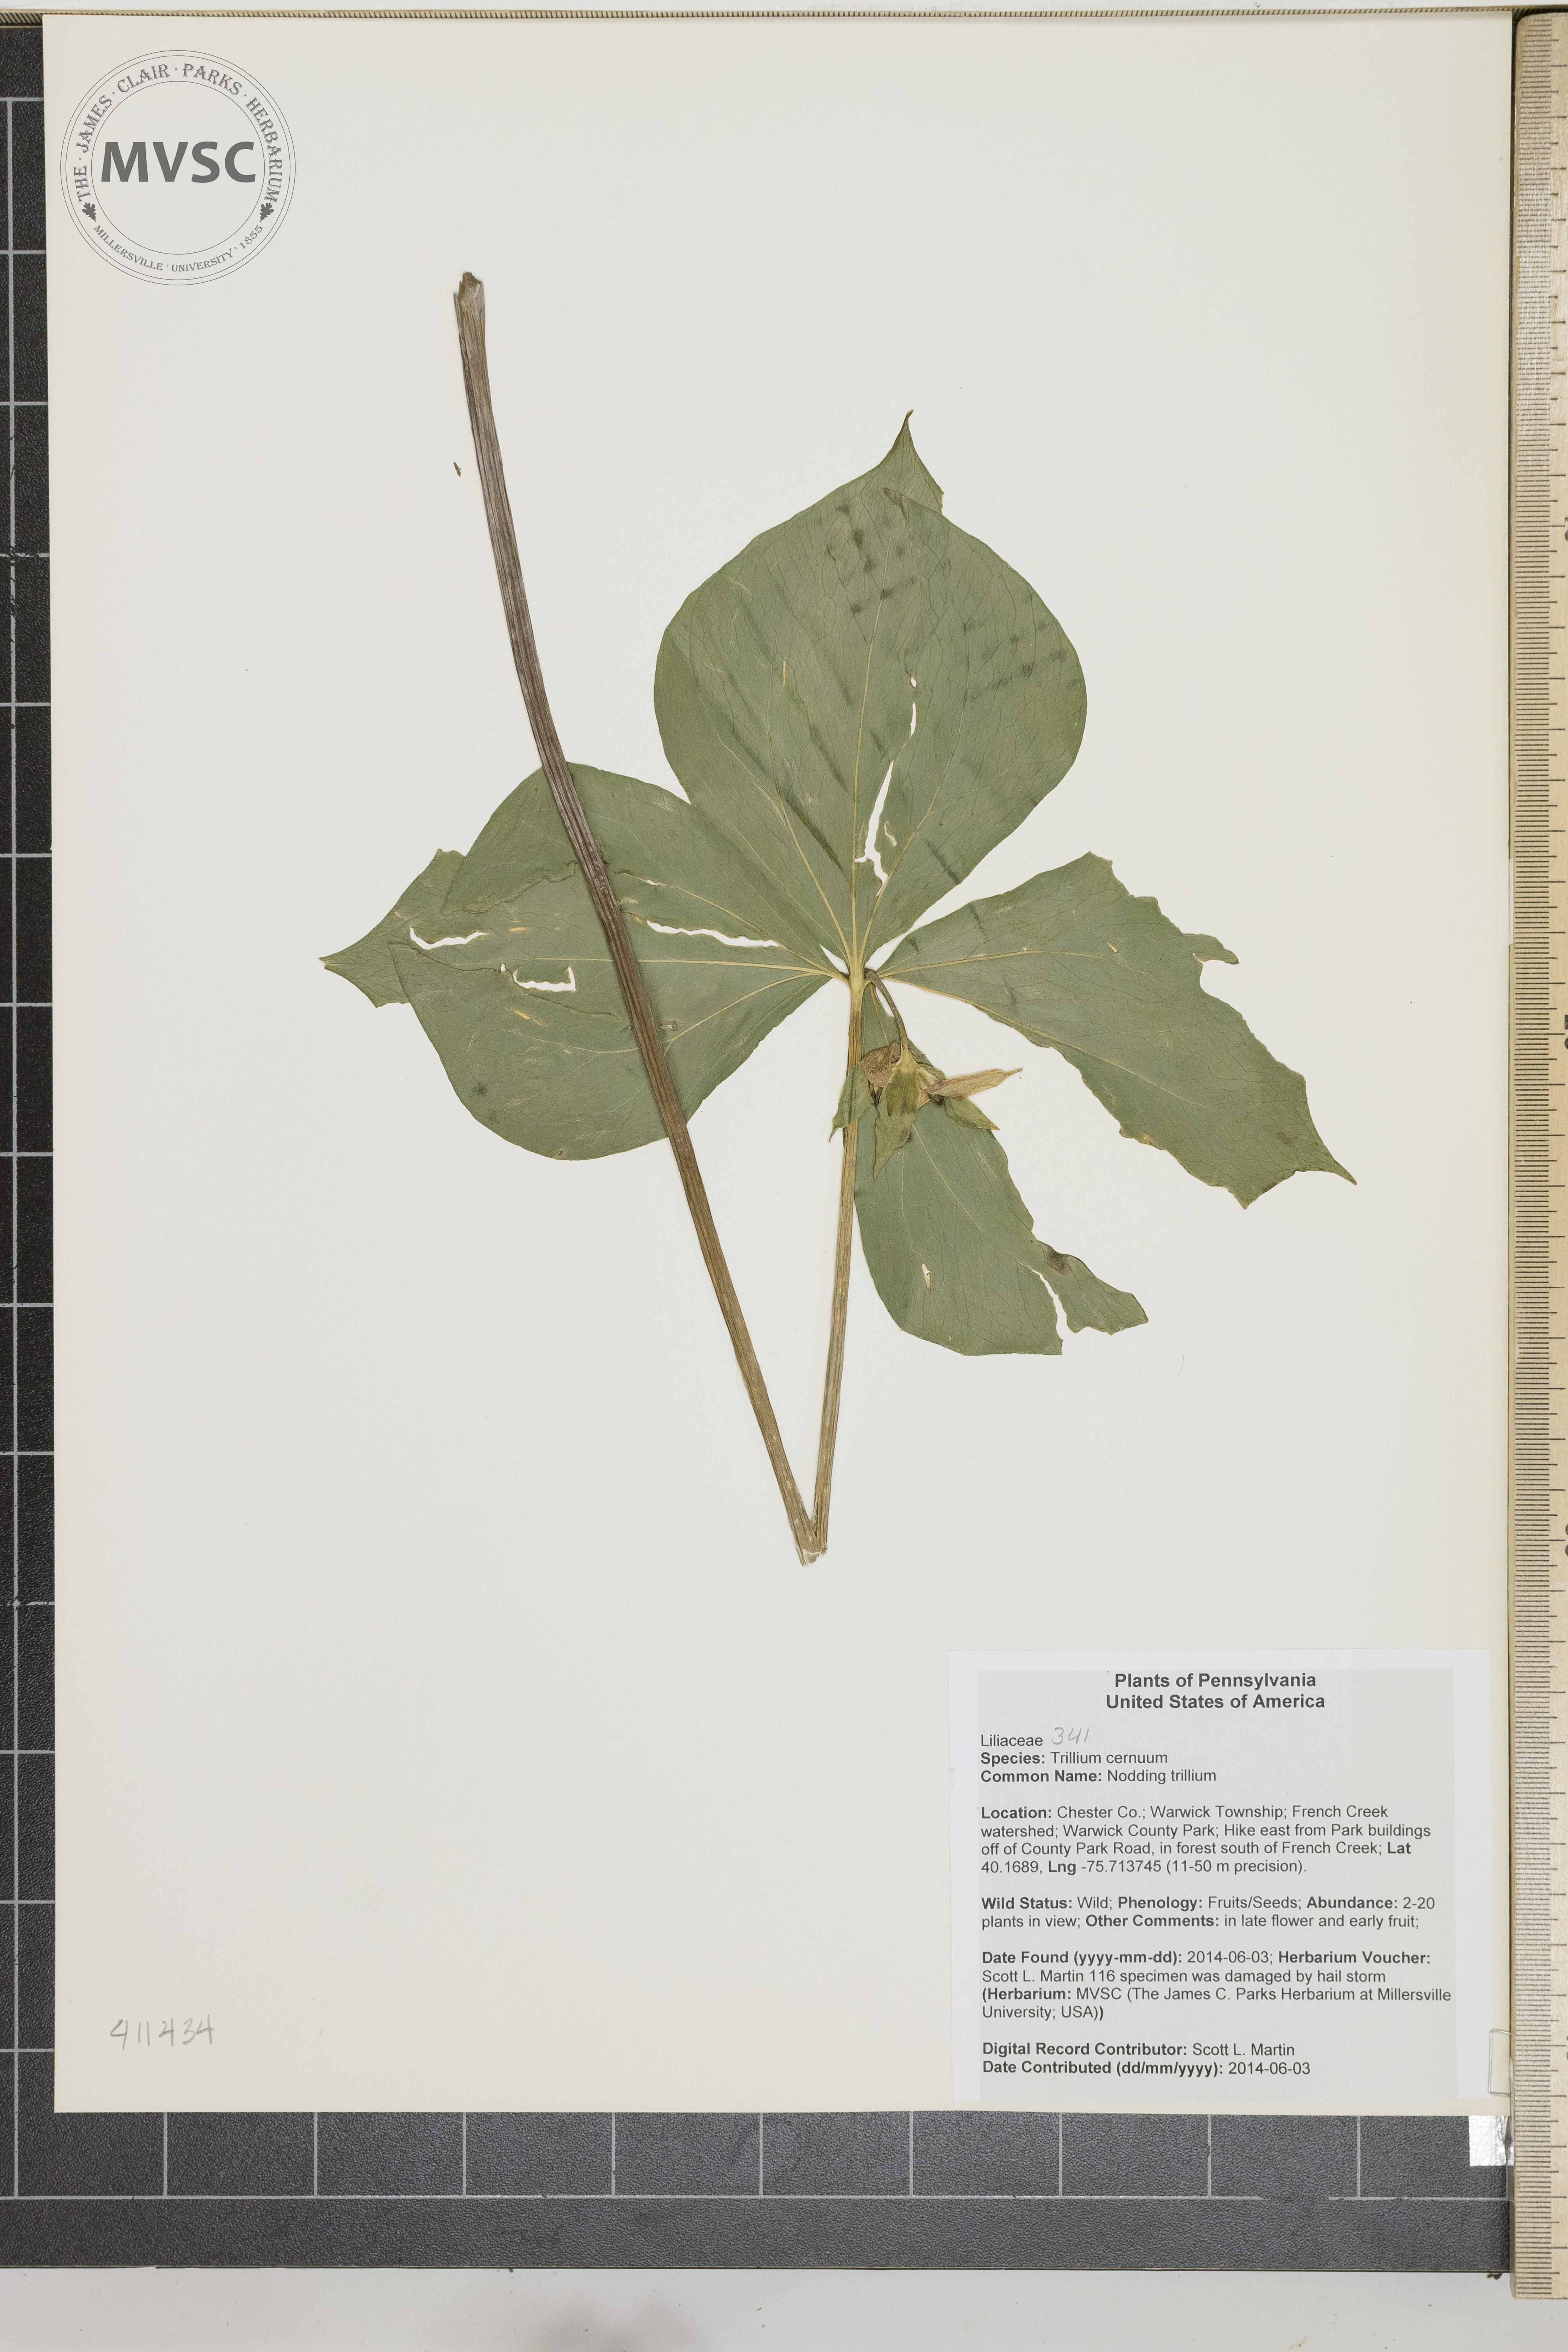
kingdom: Plantae
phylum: Tracheophyta
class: Liliopsida
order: Liliales
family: Melanthiaceae
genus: Trillium
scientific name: Trillium cernuum
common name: Nodding trillium
